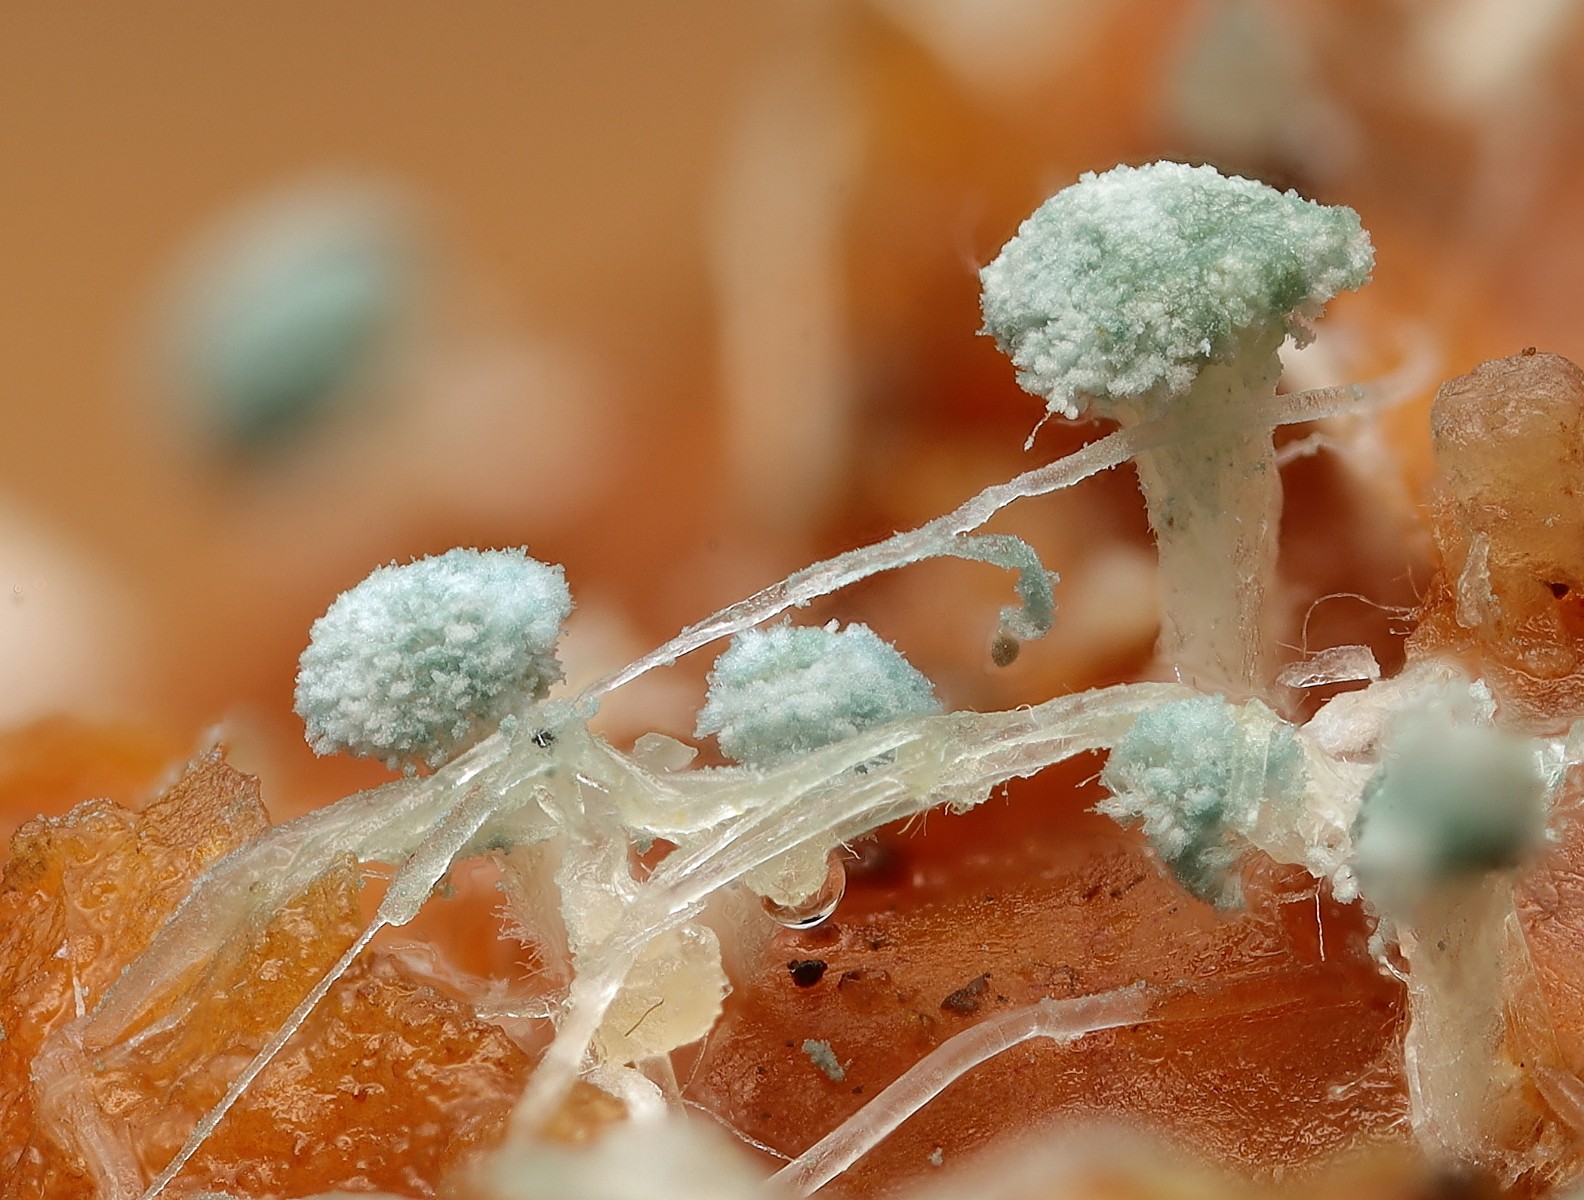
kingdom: Fungi
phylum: Ascomycota
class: Eurotiomycetes
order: Eurotiales
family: Aspergillaceae
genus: Penicillium
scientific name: Penicillium
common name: penselskimmel
